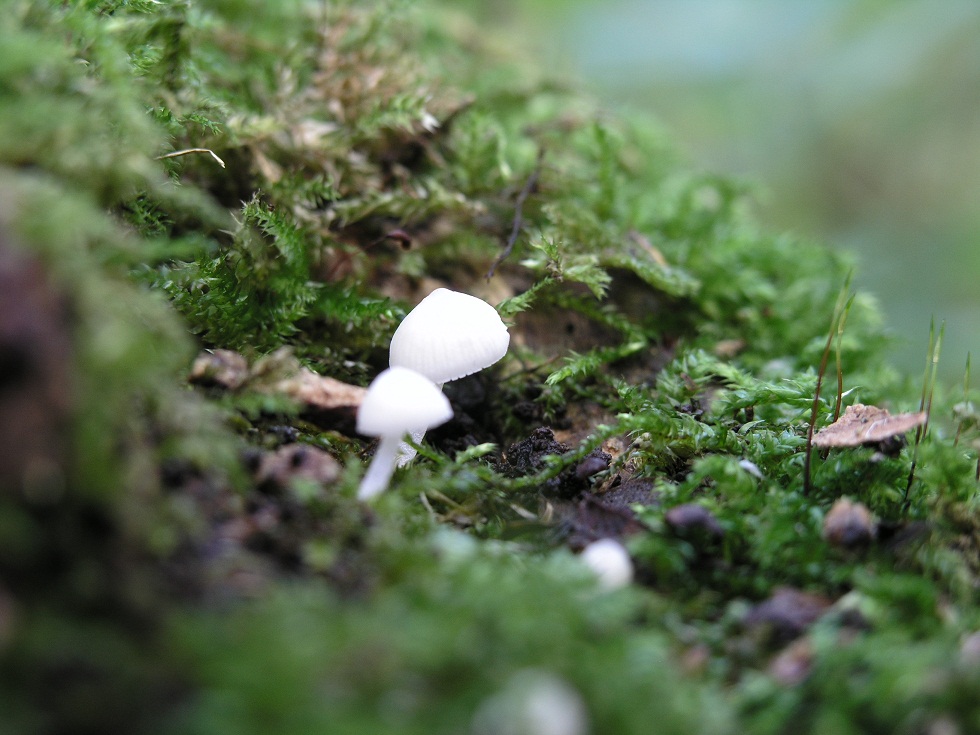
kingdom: Fungi
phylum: Basidiomycota
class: Agaricomycetes
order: Agaricales
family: Porotheleaceae
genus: Phloeomana
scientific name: Phloeomana minutula
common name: bleg huesvamp
